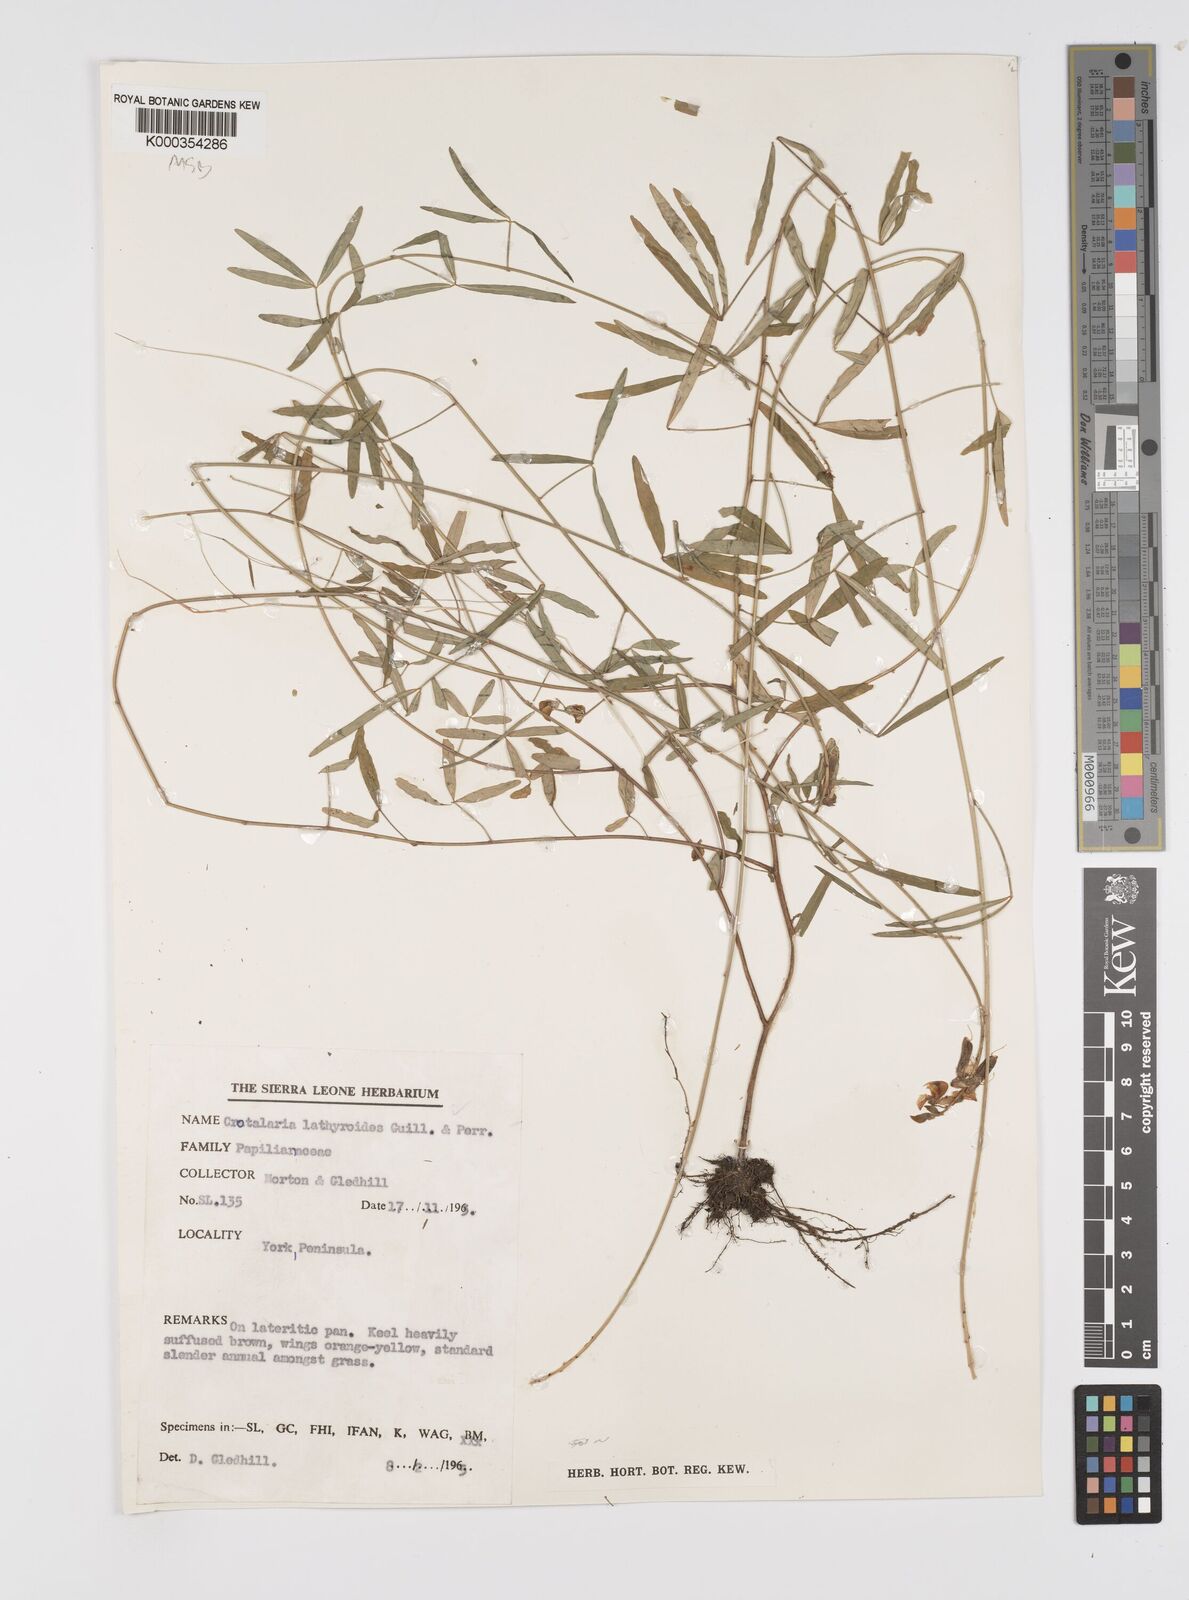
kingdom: Plantae
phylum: Tracheophyta
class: Magnoliopsida
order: Fabales
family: Fabaceae
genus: Crotalaria
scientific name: Crotalaria lathyroides
